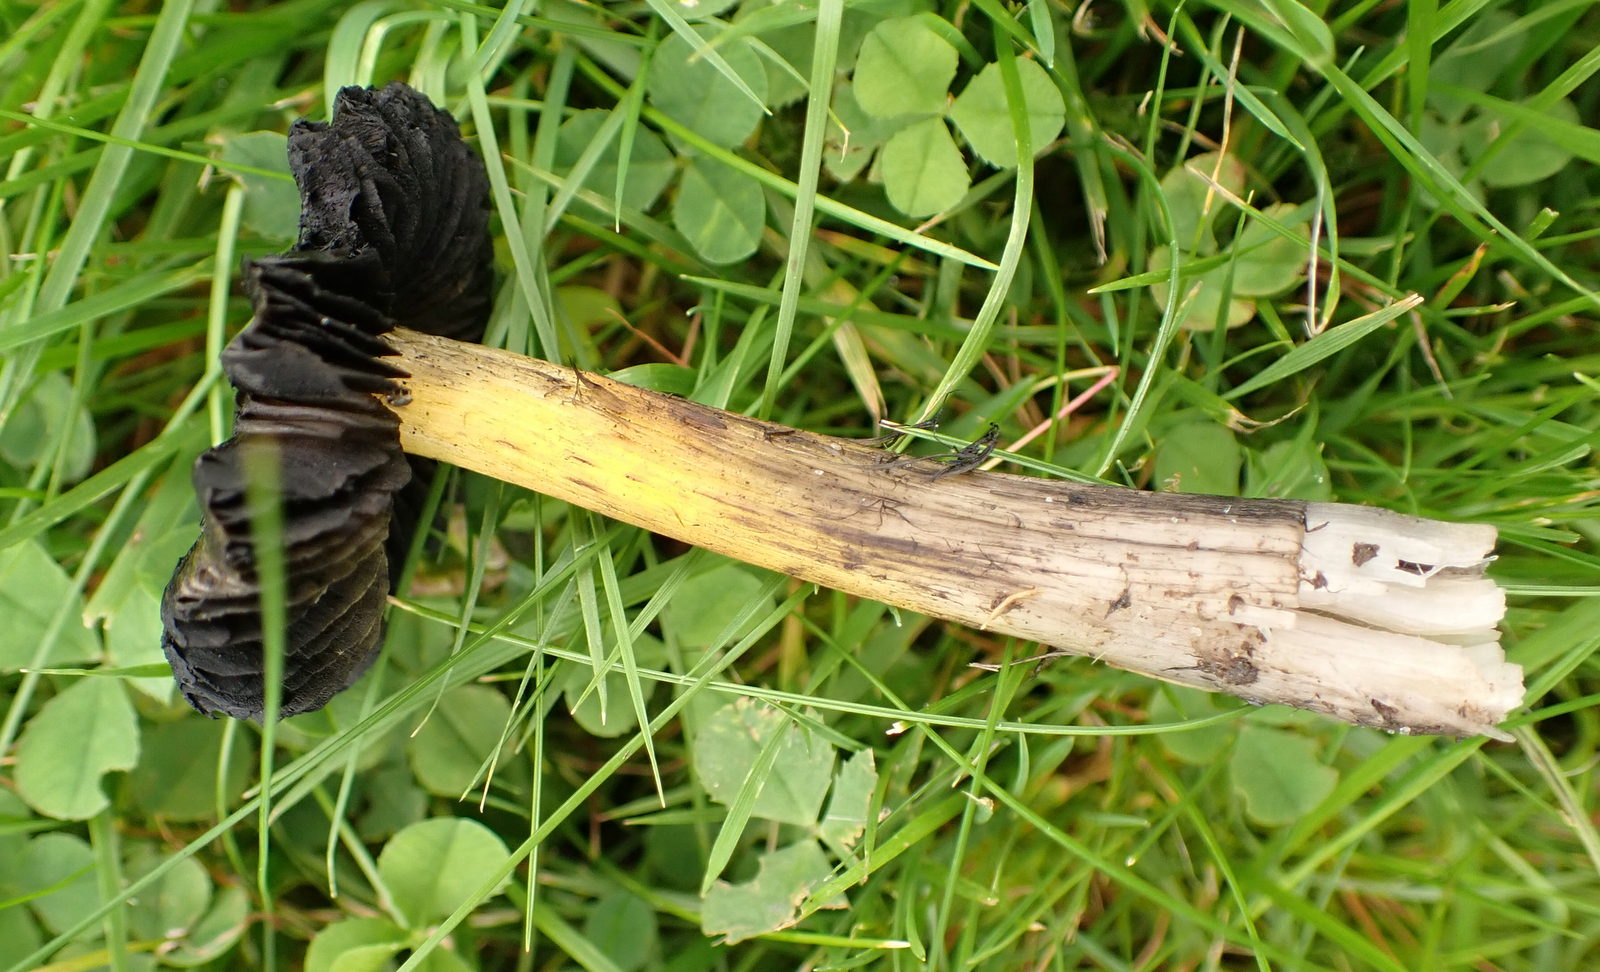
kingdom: Fungi
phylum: Basidiomycota
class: Agaricomycetes
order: Agaricales
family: Hygrophoraceae
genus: Hygrocybe
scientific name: Hygrocybe conica
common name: kegle-vokshat
